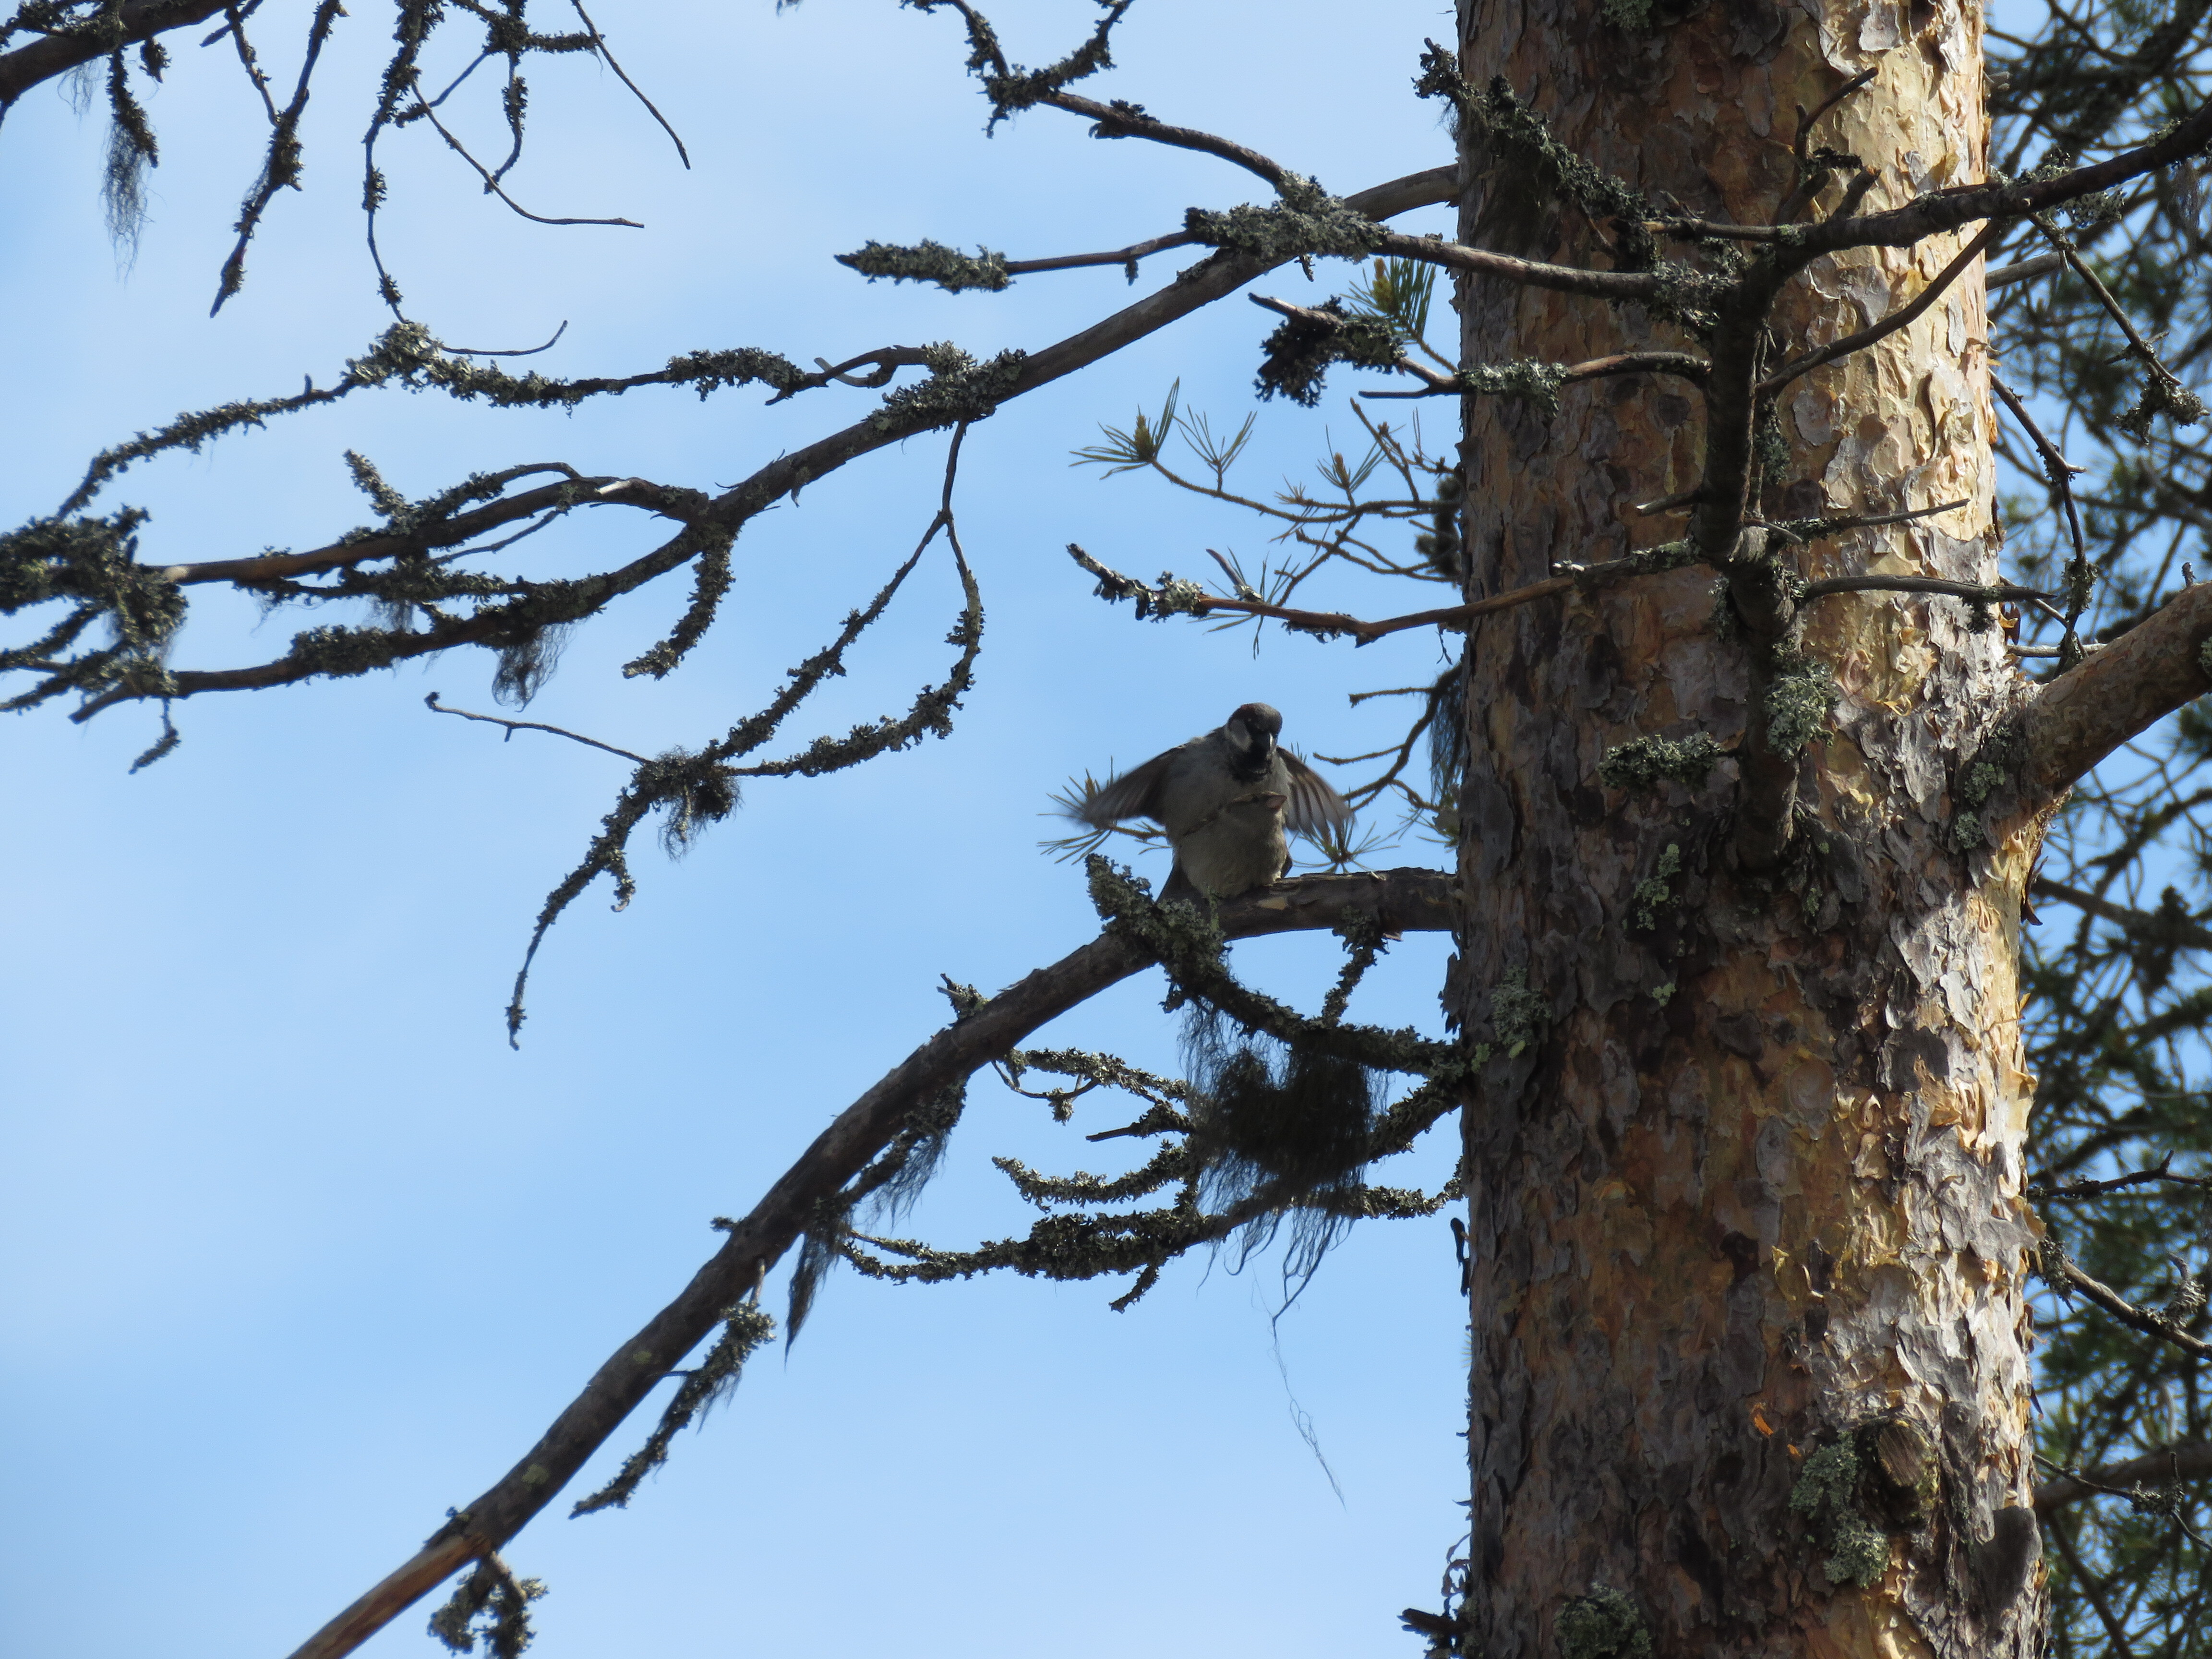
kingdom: Animalia
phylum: Chordata
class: Aves
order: Passeriformes
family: Passeridae
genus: Passer
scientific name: Passer domesticus
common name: House sparrow
